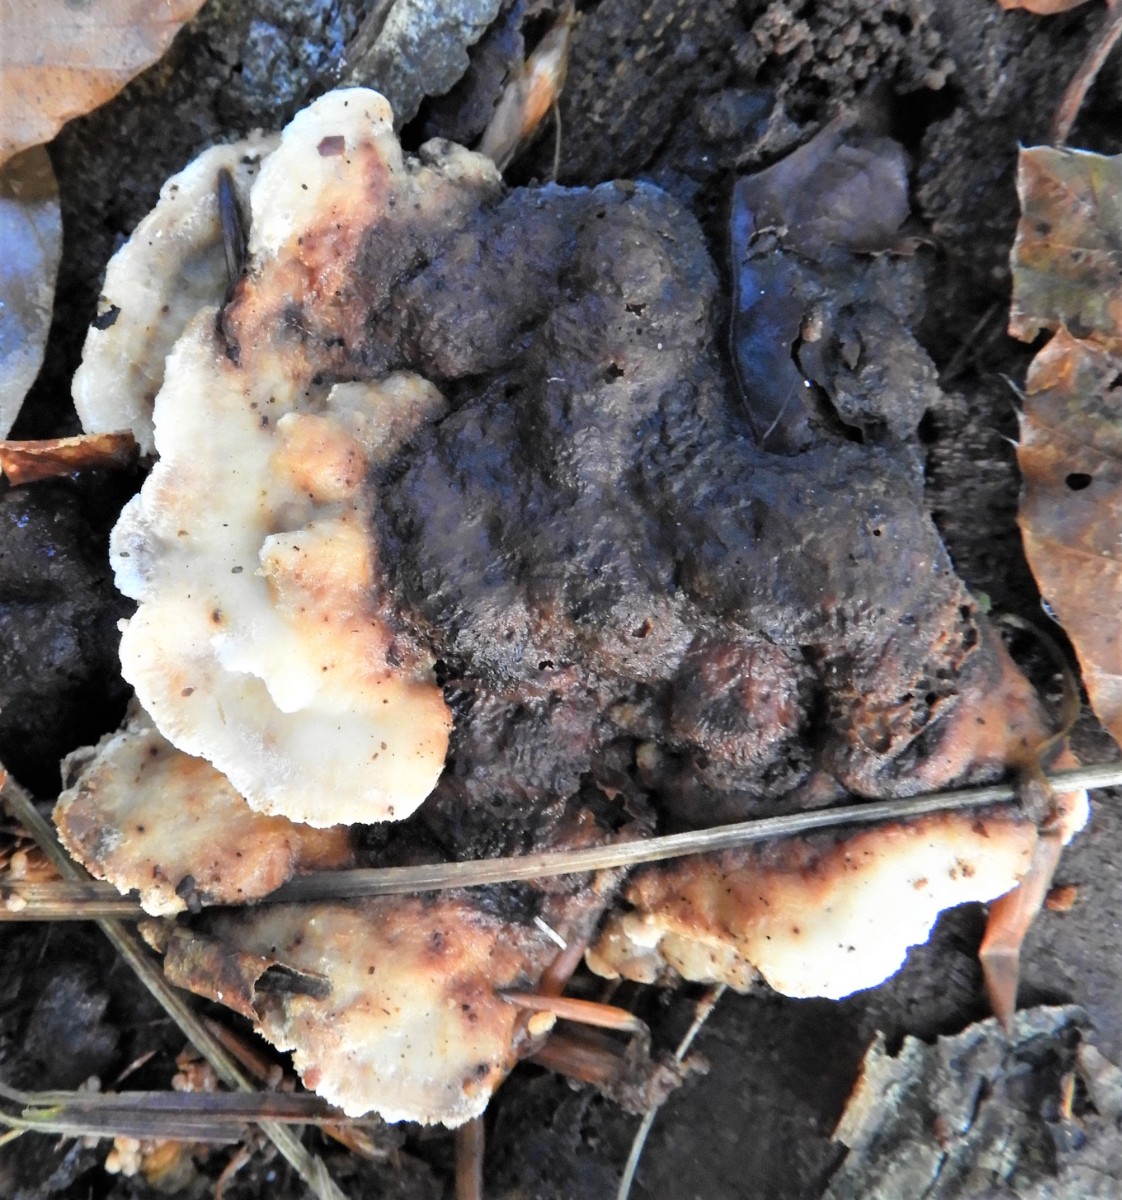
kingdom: Fungi
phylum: Basidiomycota
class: Agaricomycetes
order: Polyporales
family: Incrustoporiaceae
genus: Skeletocutis
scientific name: Skeletocutis nemoralis
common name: stor krystalporesvamp
